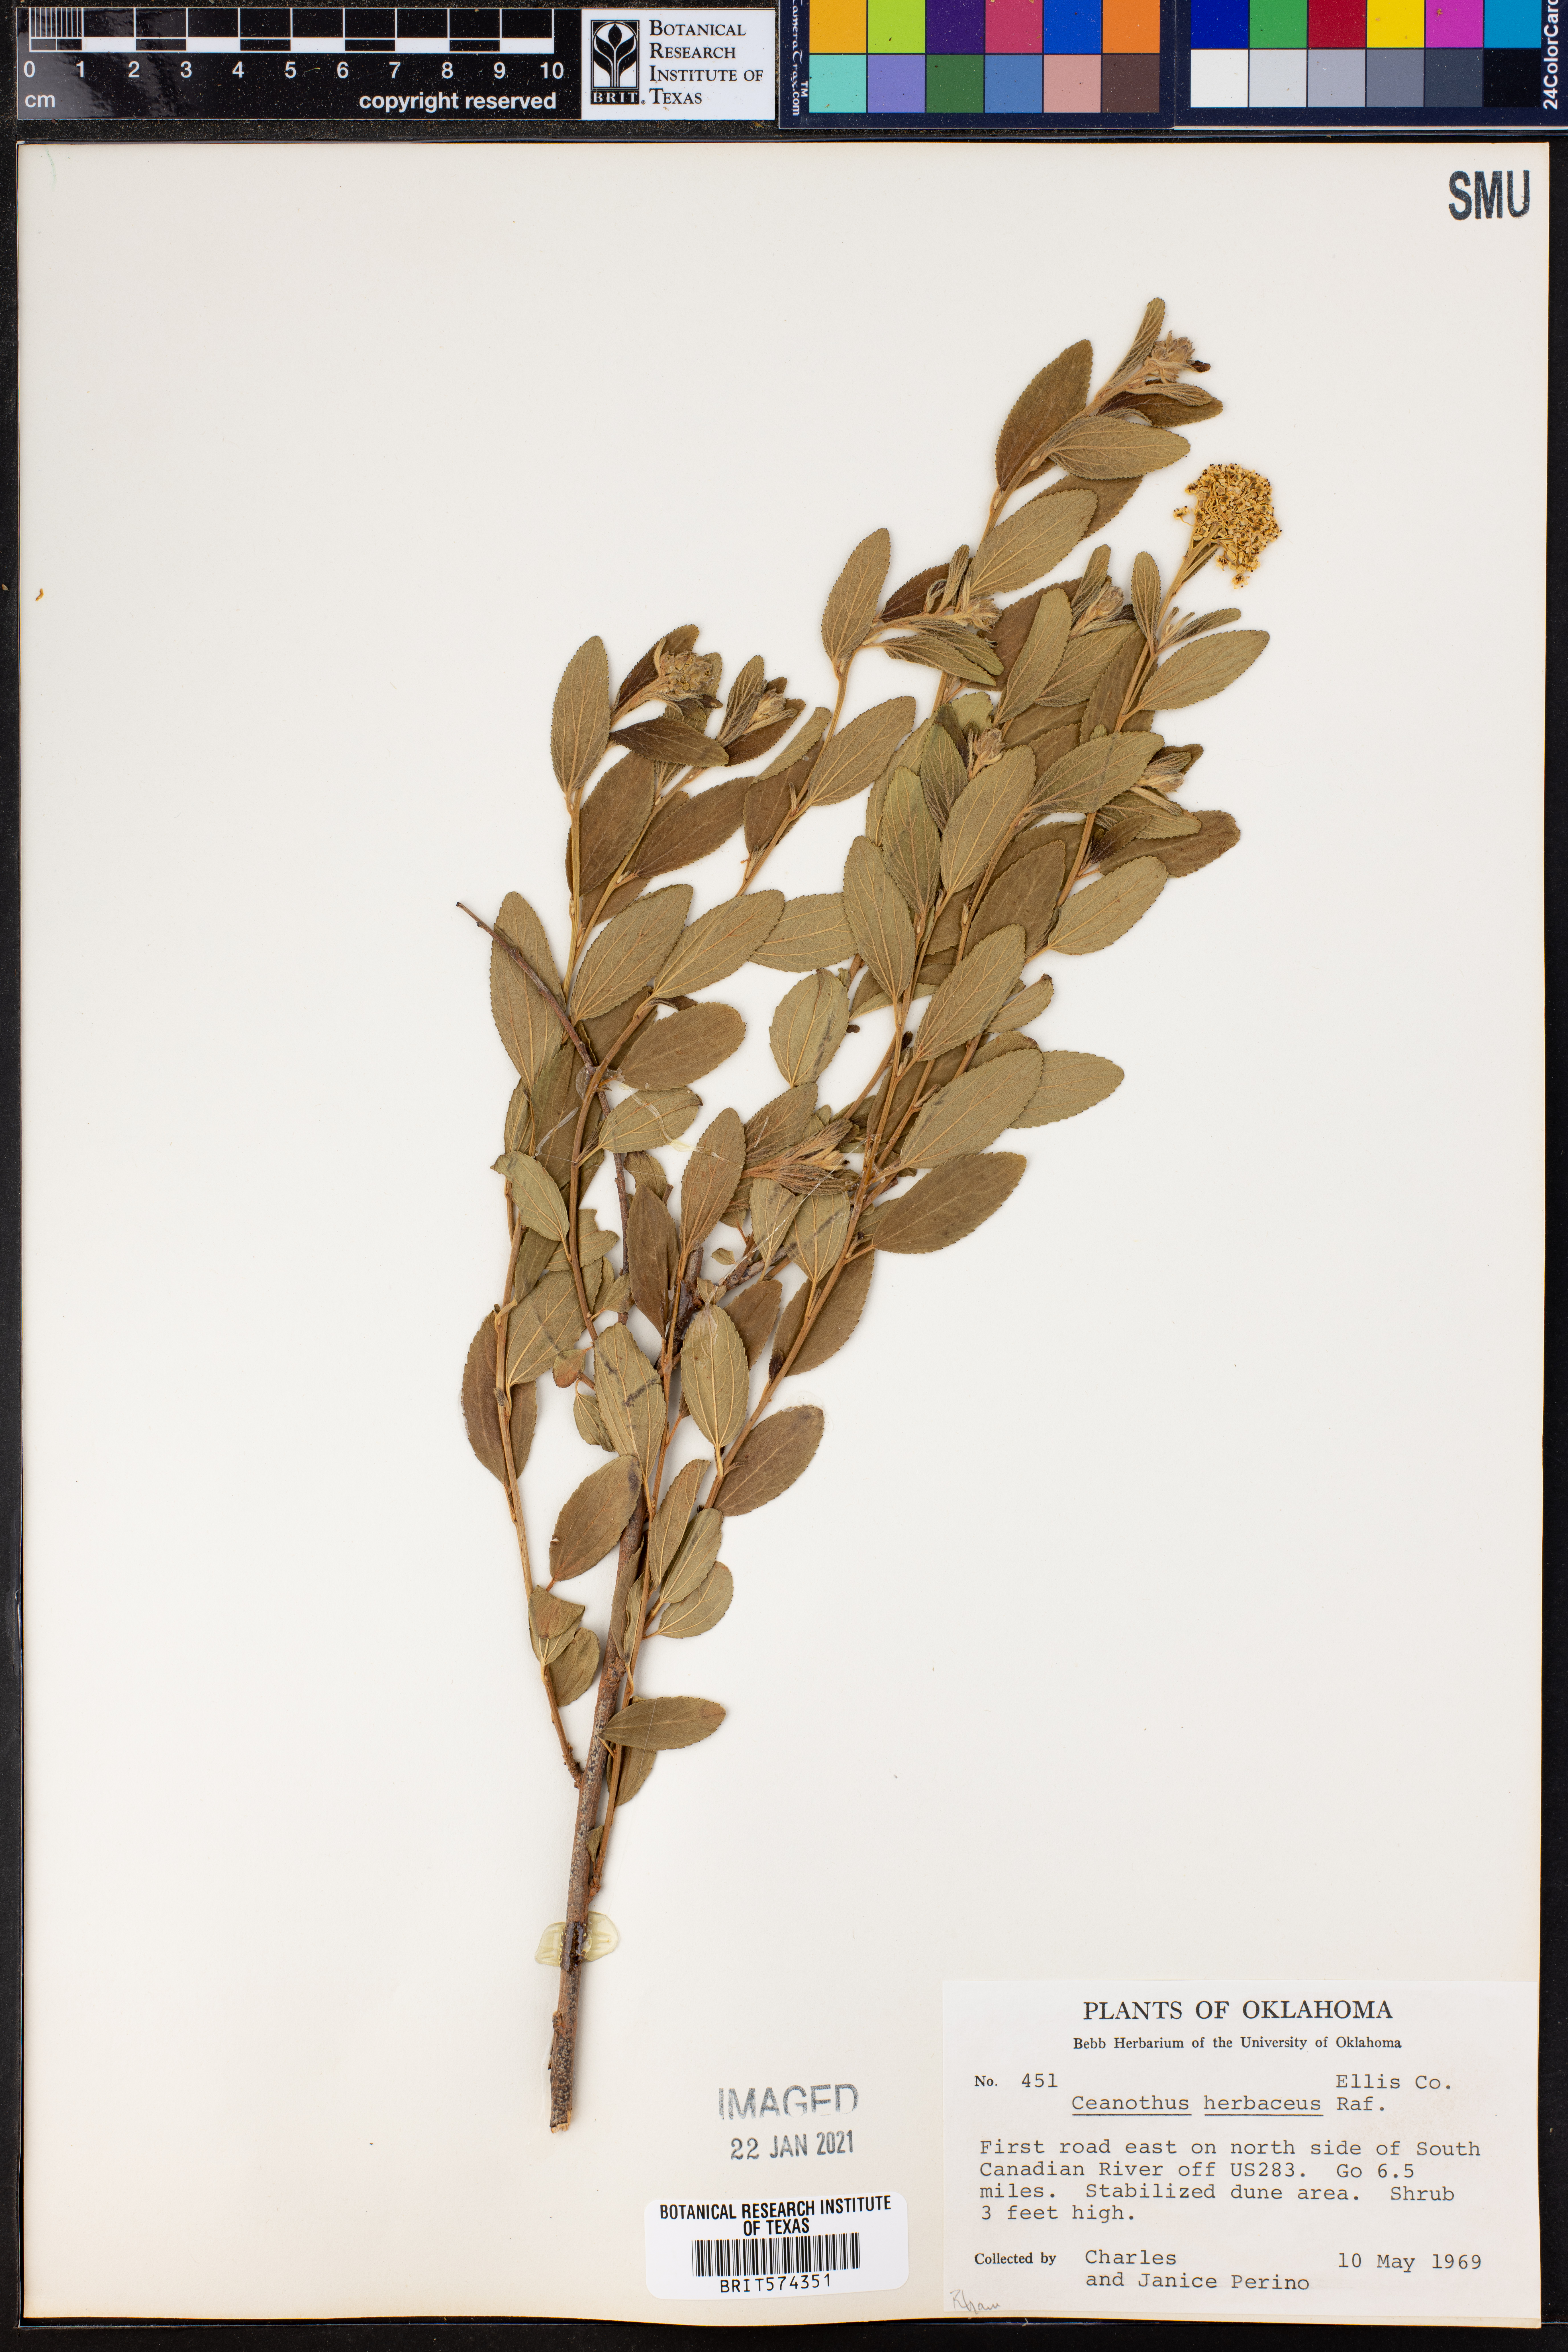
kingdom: Plantae
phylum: Tracheophyta
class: Magnoliopsida
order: Rosales
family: Rhamnaceae
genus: Ceanothus
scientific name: Ceanothus herbaceus
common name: Inland ceanothus
